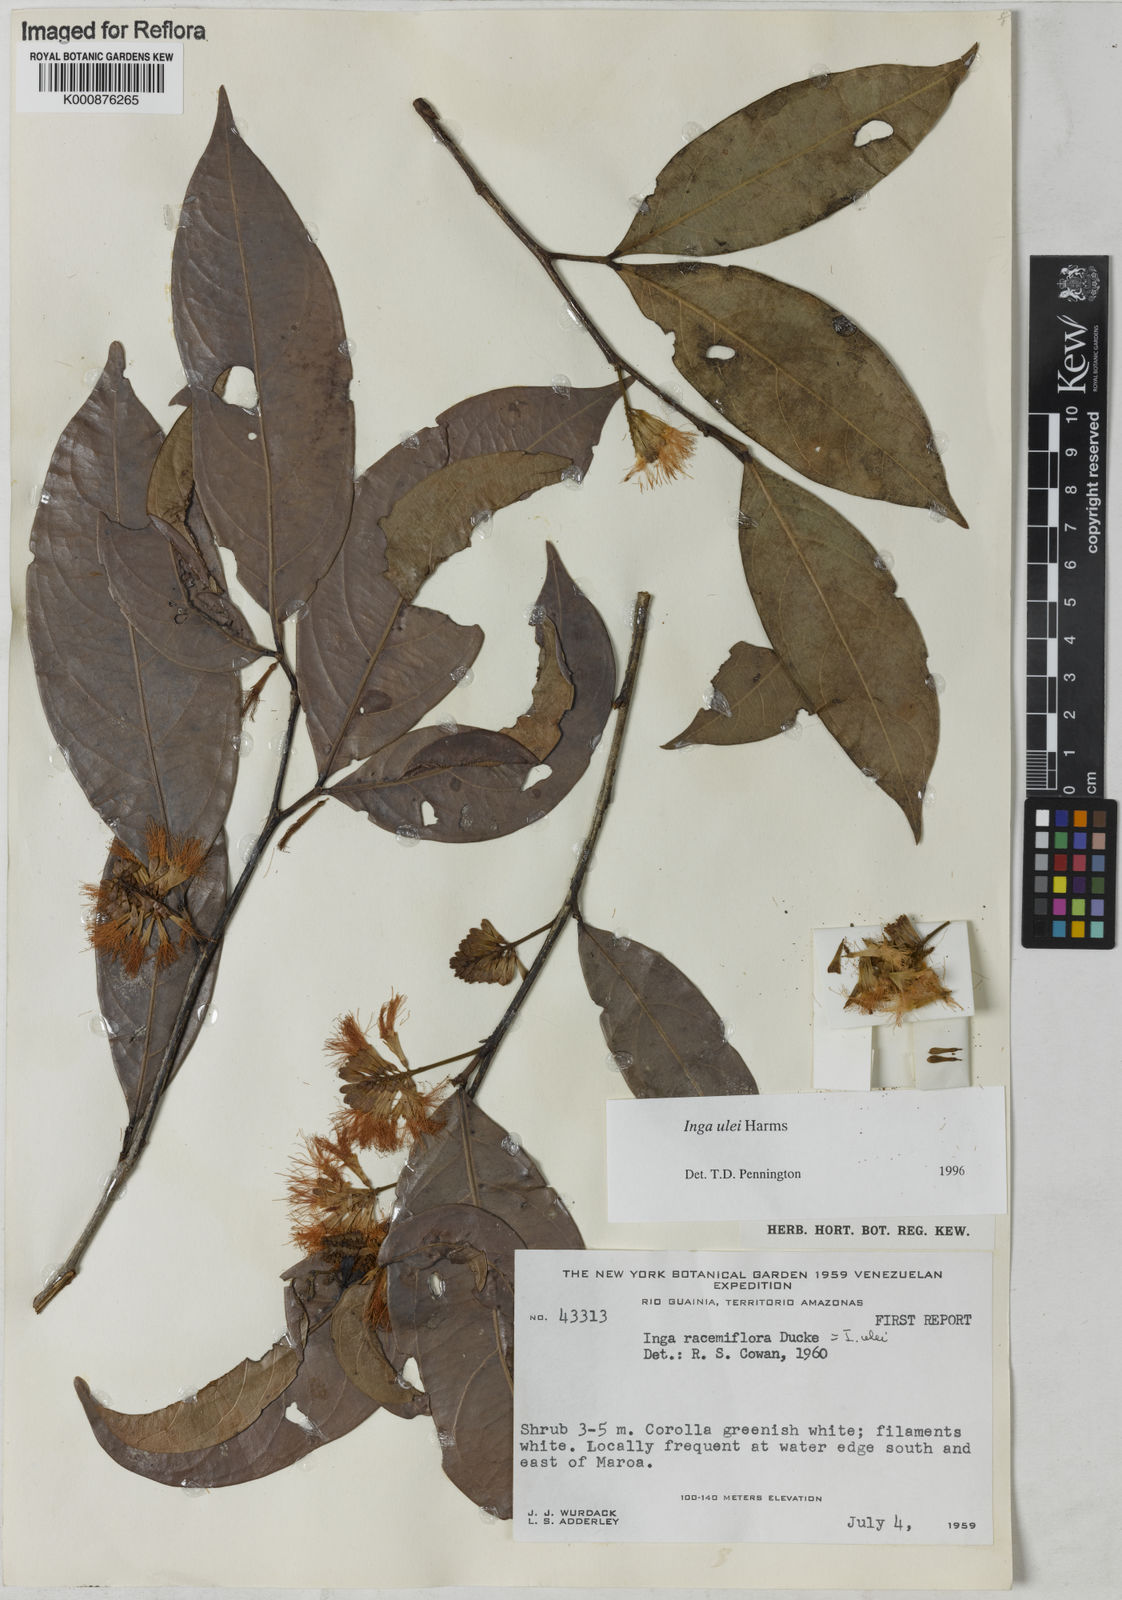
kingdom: Plantae
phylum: Tracheophyta
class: Magnoliopsida
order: Fabales
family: Fabaceae
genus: Inga
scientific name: Inga ulei
